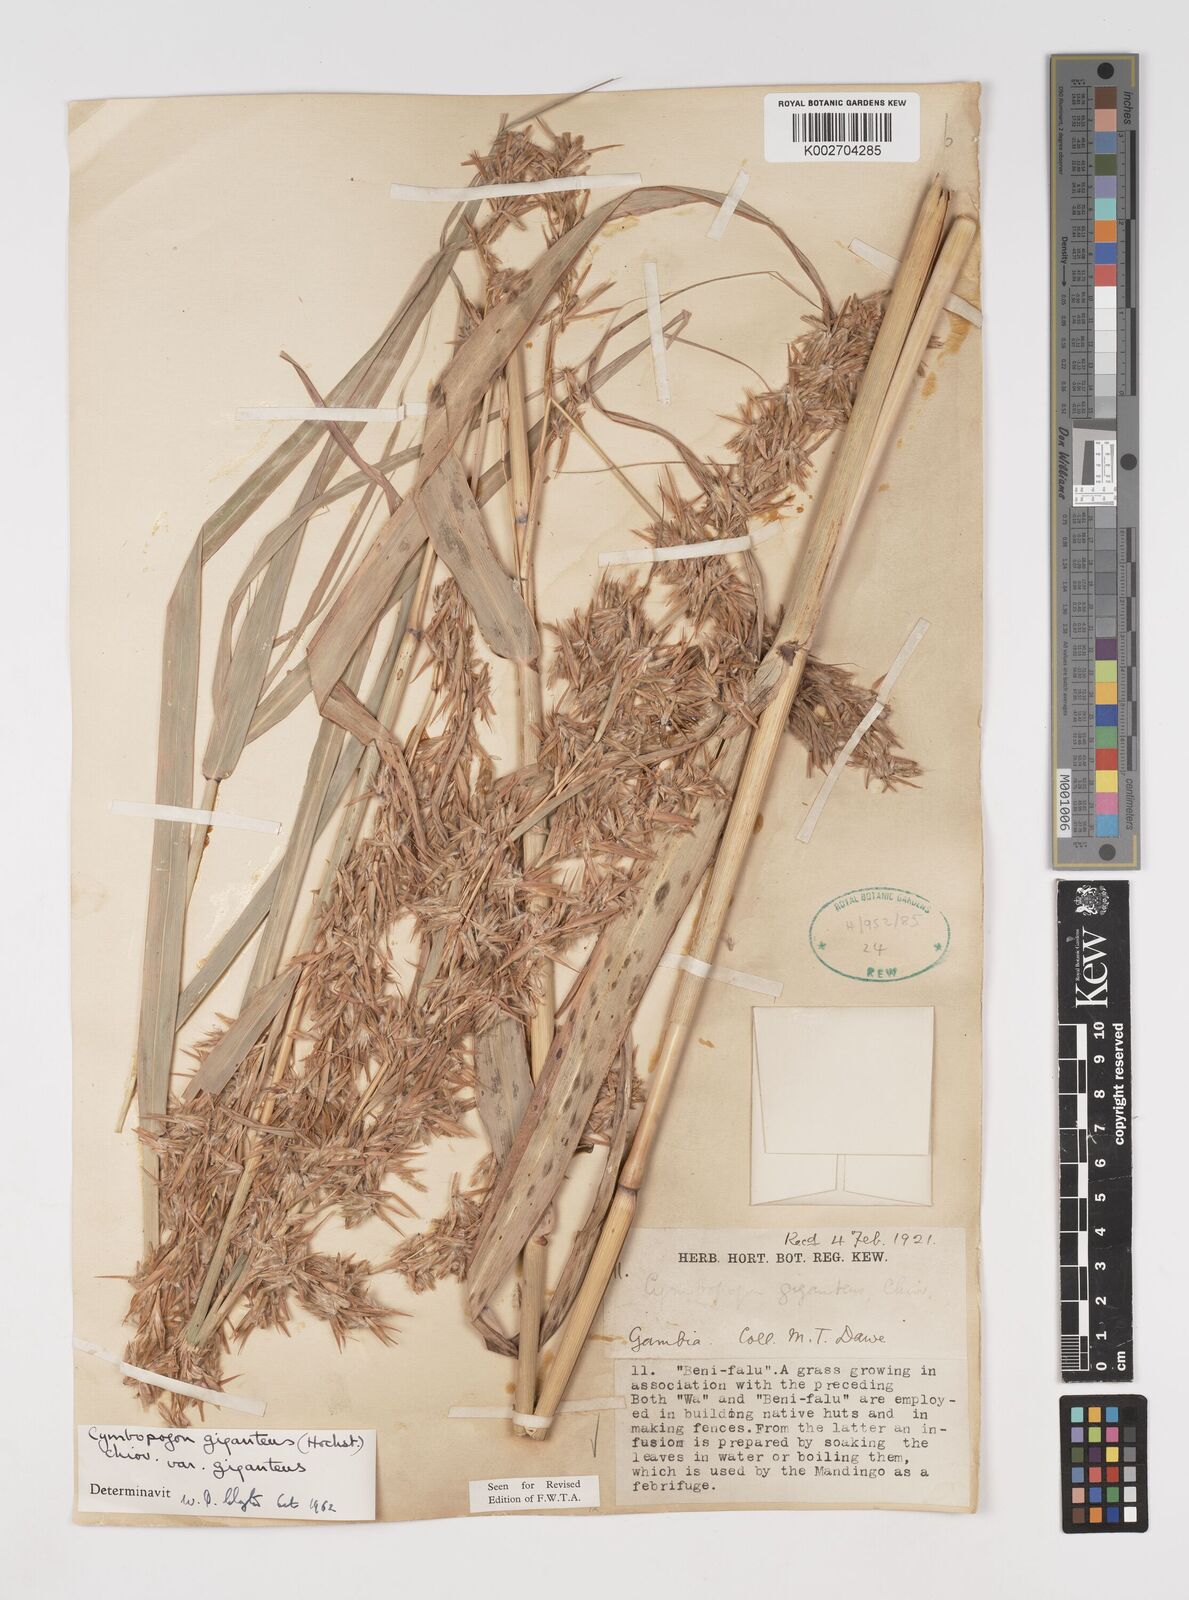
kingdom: Plantae
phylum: Tracheophyta
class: Liliopsida
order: Poales
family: Poaceae
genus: Cymbopogon
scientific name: Cymbopogon giganteus
